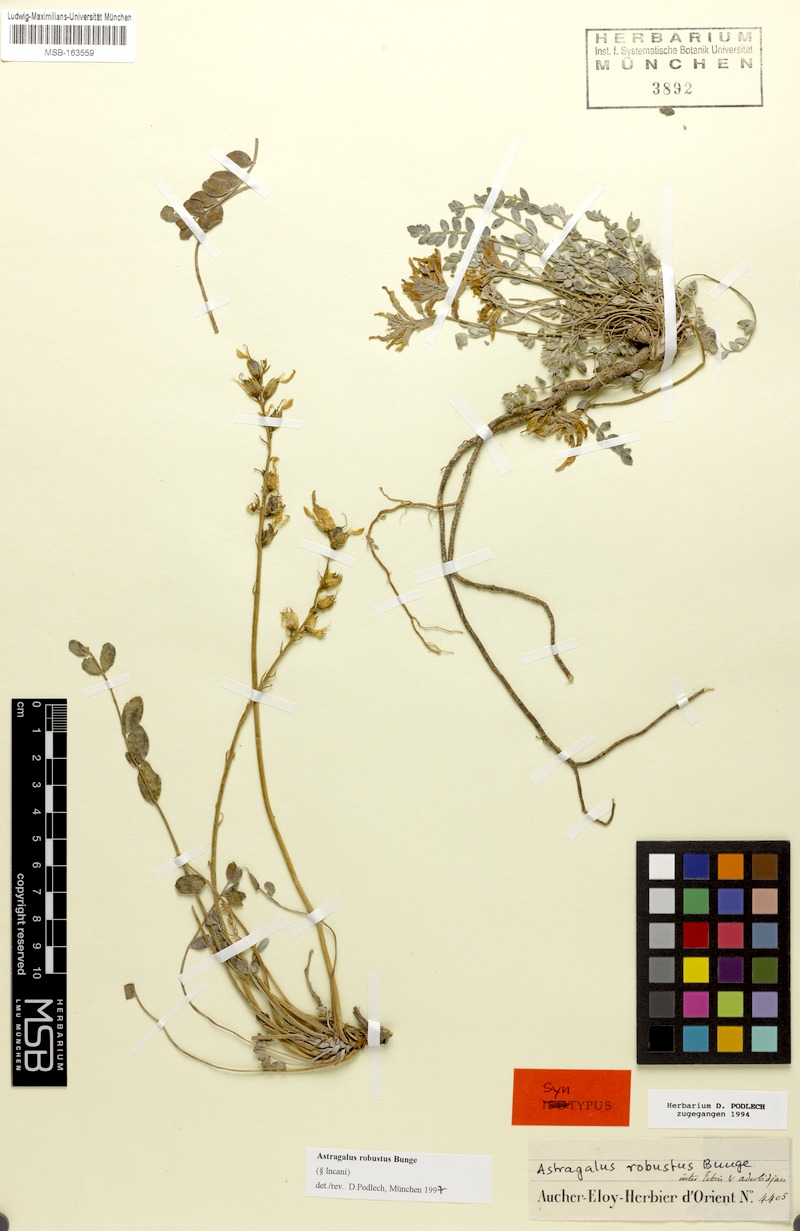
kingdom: Plantae
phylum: Tracheophyta
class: Magnoliopsida
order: Fabales
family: Fabaceae
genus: Astragalus
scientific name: Astragalus robustus
